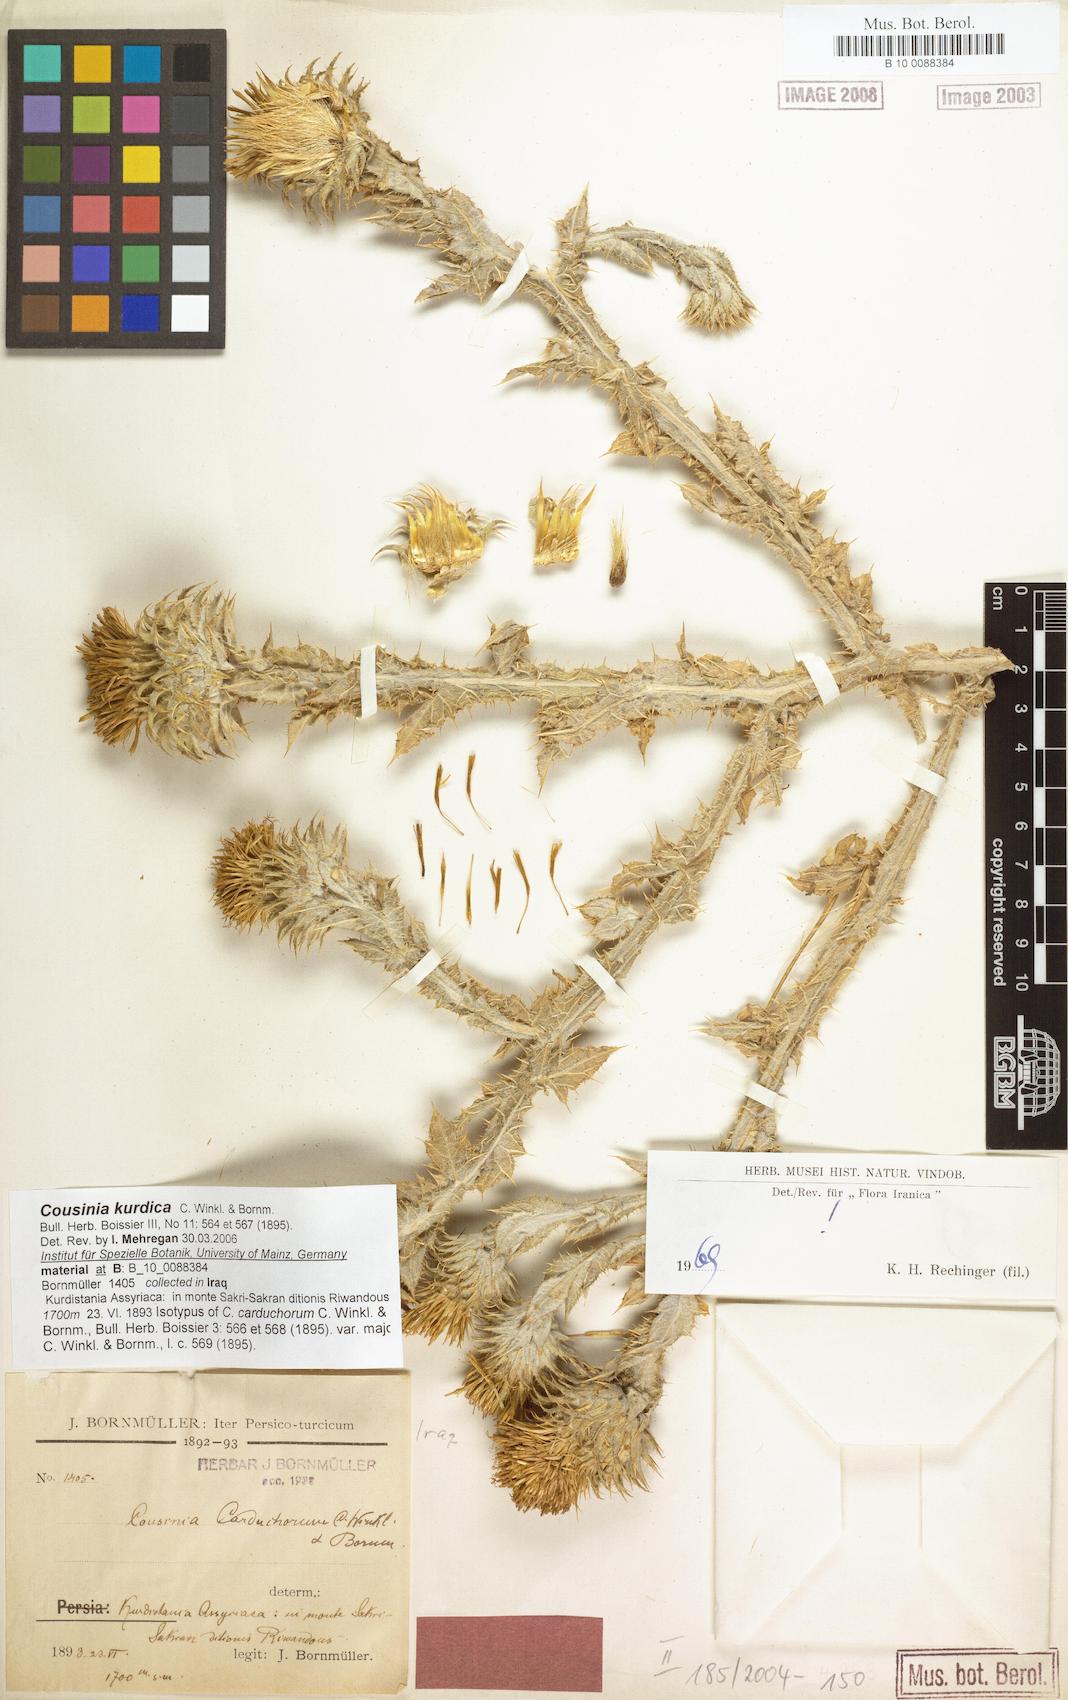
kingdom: Plantae
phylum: Tracheophyta
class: Magnoliopsida
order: Asterales
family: Asteraceae
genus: Cousinia
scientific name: Cousinia odontolepis
